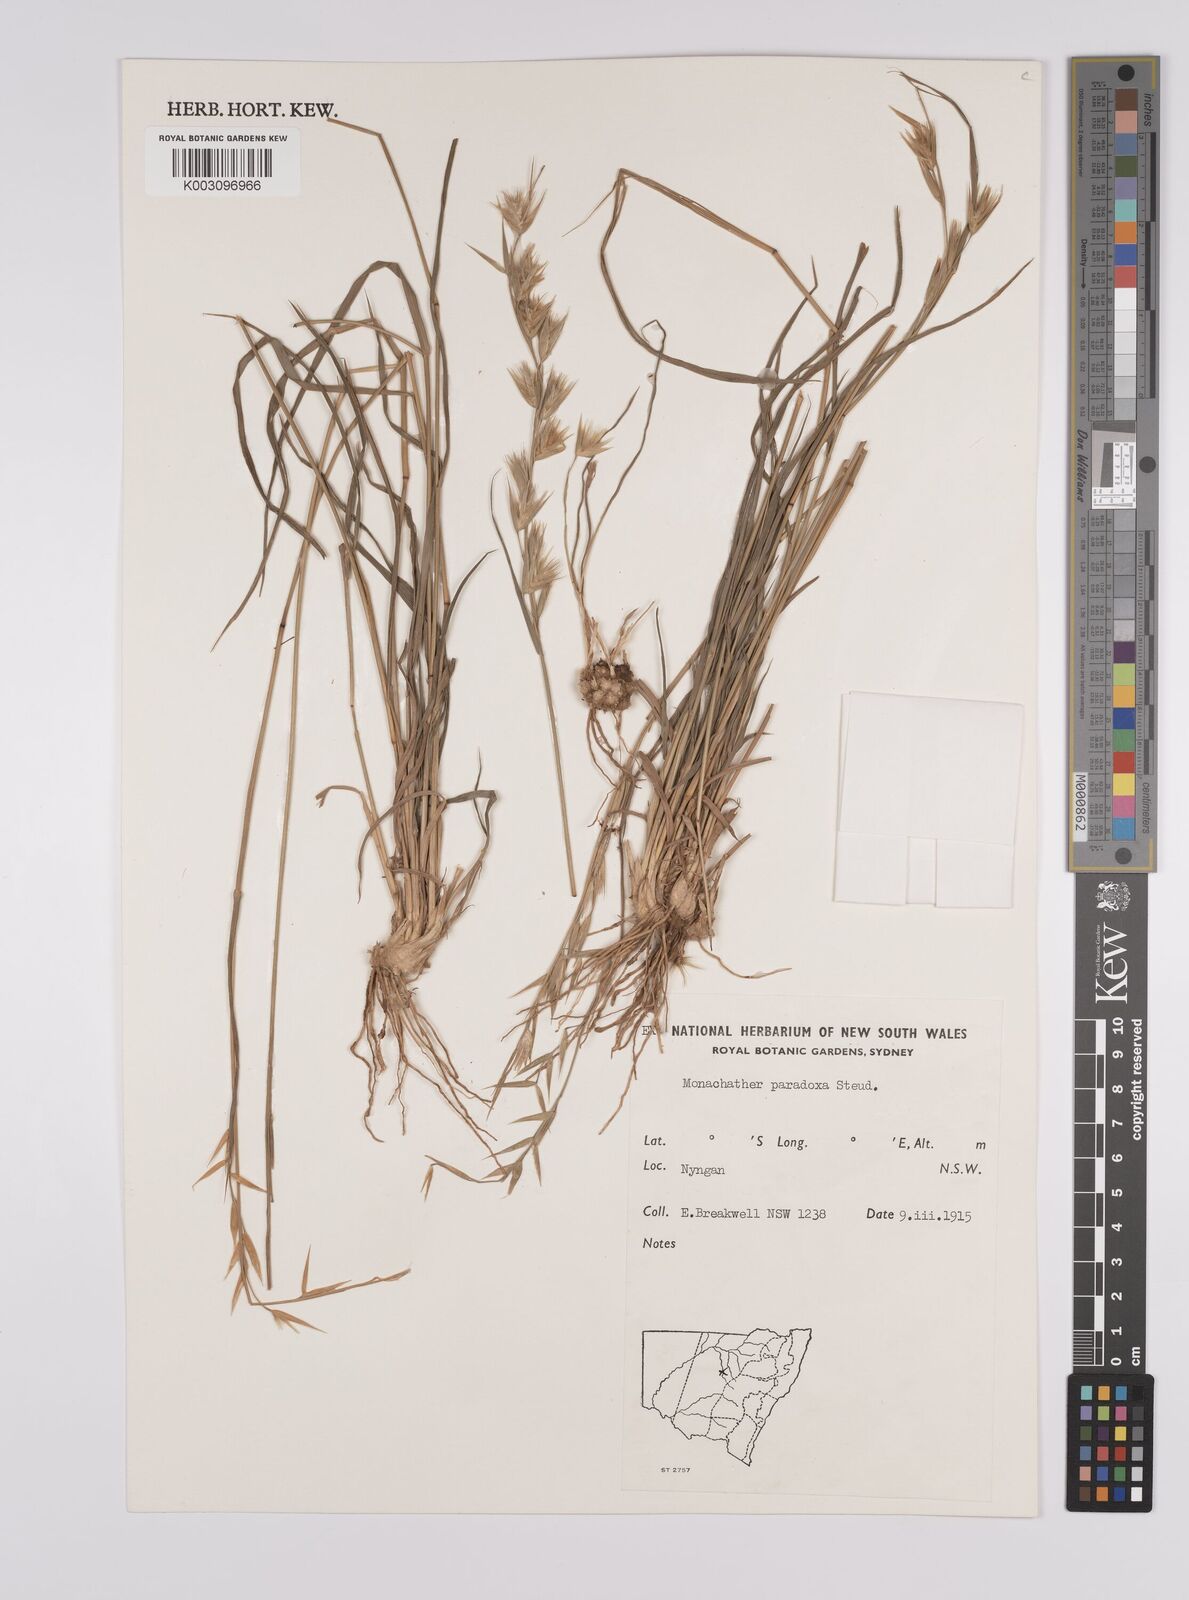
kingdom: Plantae
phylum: Tracheophyta
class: Liliopsida
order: Poales
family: Poaceae
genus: Monachather
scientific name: Monachather paradoxus
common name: Bandicoot grass
